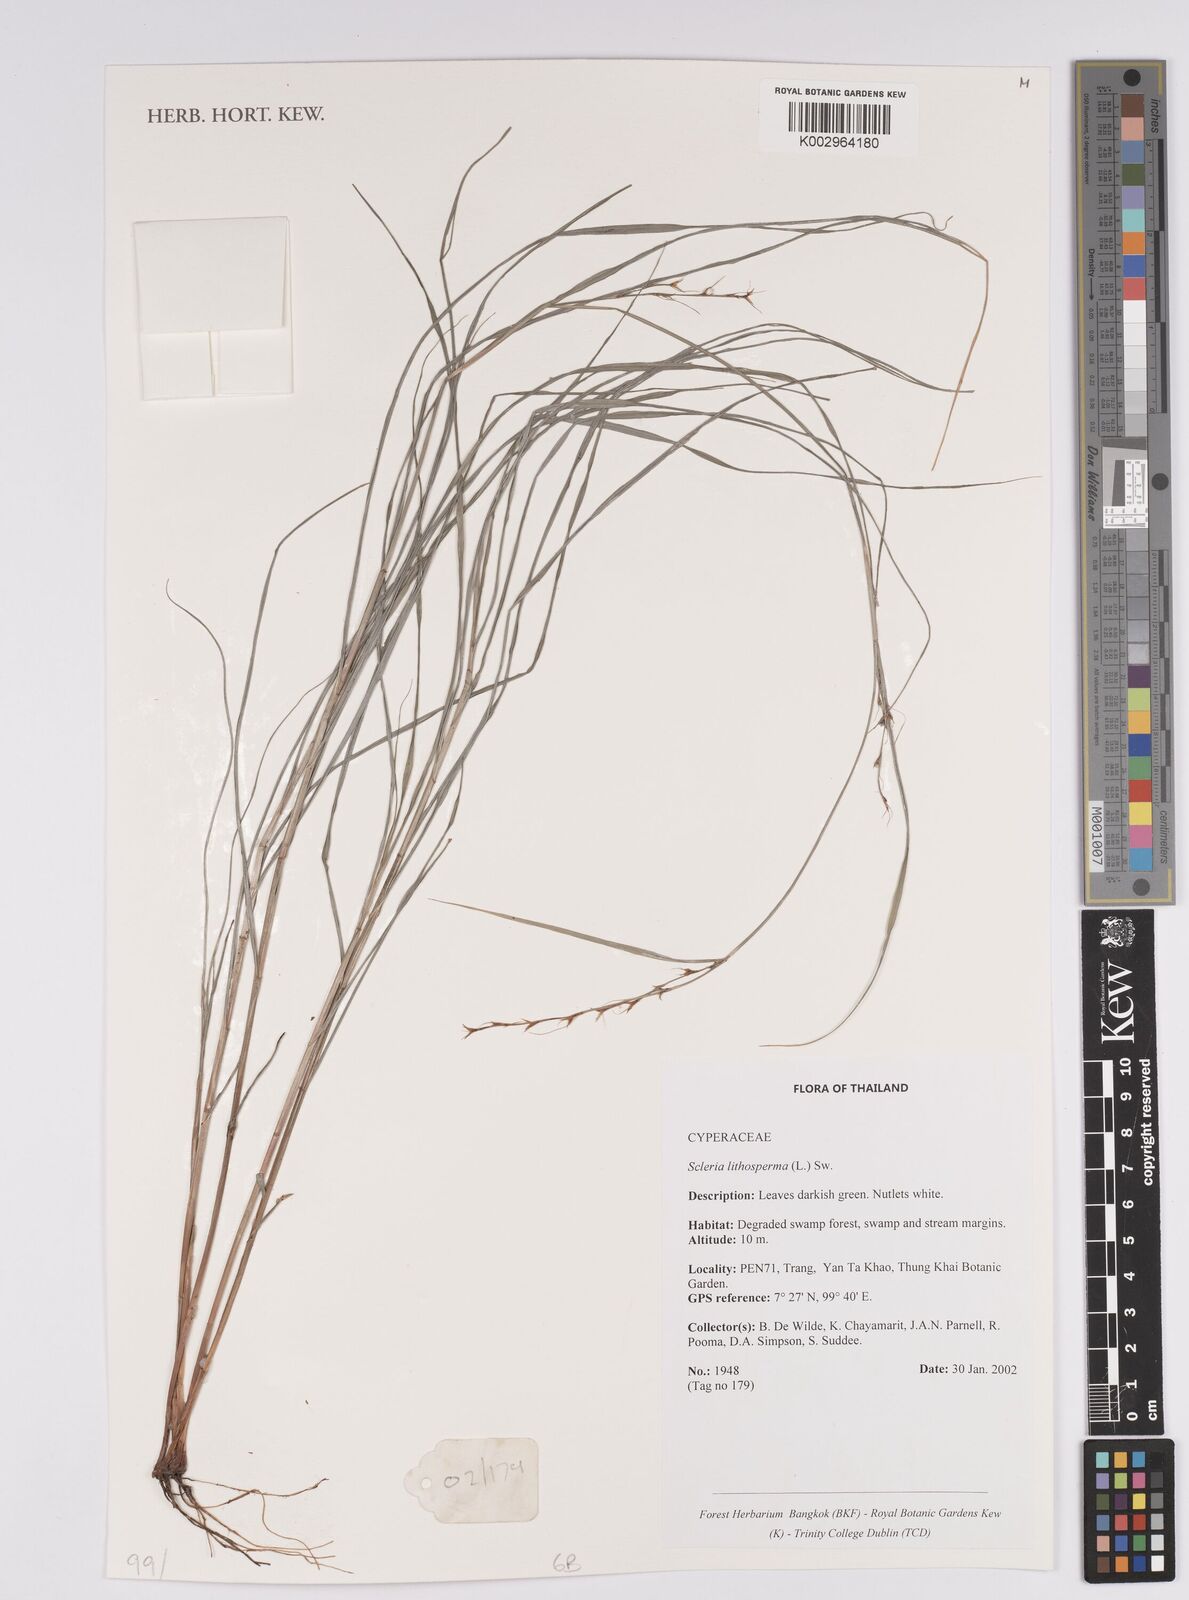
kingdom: Plantae
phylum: Tracheophyta
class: Liliopsida
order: Poales
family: Cyperaceae
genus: Scleria
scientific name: Scleria lithosperma
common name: Florida keys nut-rush
